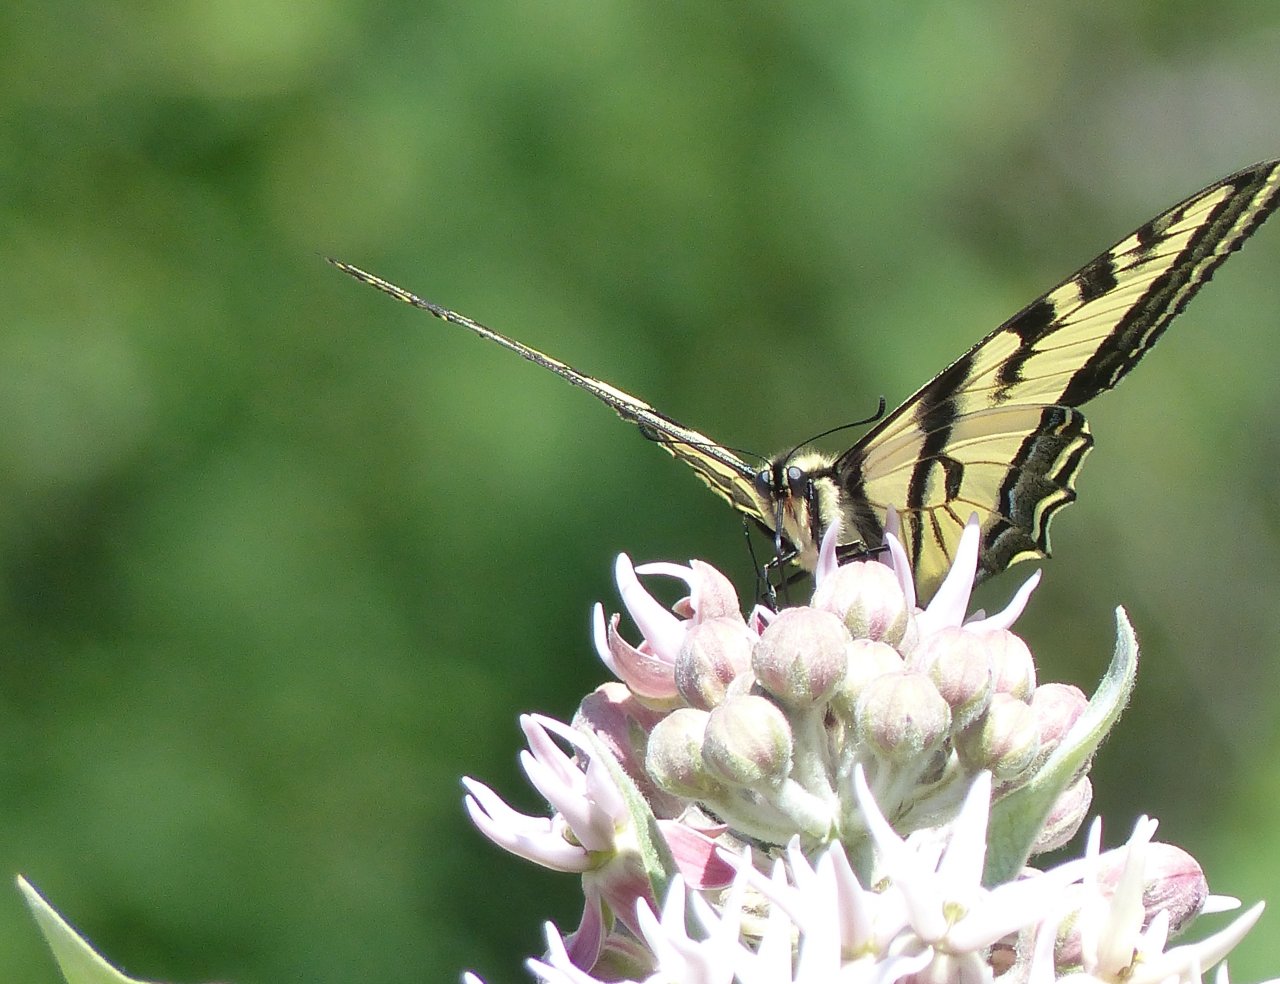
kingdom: Animalia
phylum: Arthropoda
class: Insecta
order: Lepidoptera
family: Papilionidae
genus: Pterourus
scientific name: Pterourus rutulus
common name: Western Tiger Swallowtail
